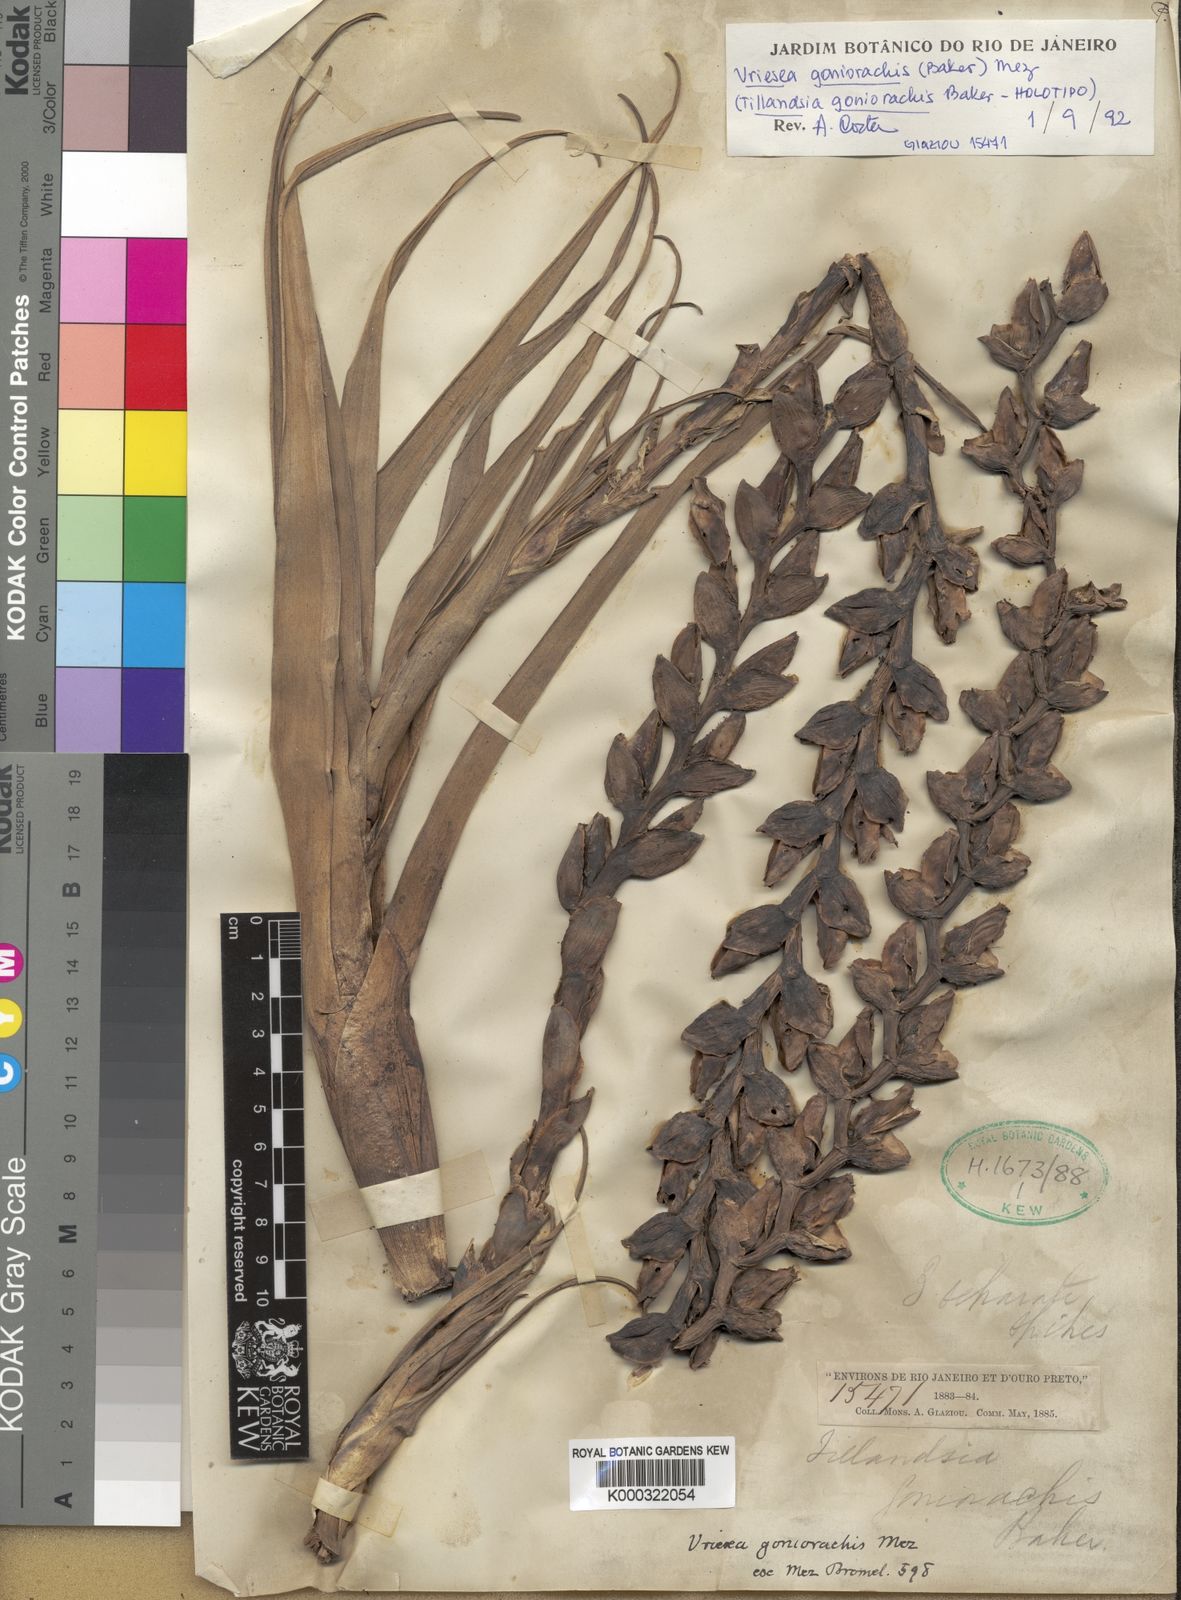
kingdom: Plantae
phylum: Tracheophyta
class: Liliopsida
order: Poales
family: Bromeliaceae
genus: Stigmatodon
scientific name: Stigmatodon goniorachis
